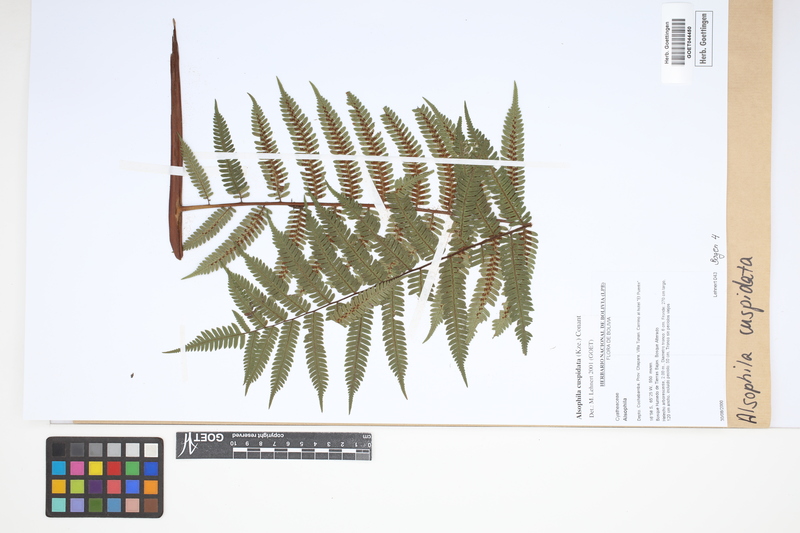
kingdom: Plantae
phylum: Tracheophyta
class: Polypodiopsida
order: Cyatheales
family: Cyatheaceae
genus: Alsophila
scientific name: Alsophila cuspidata
